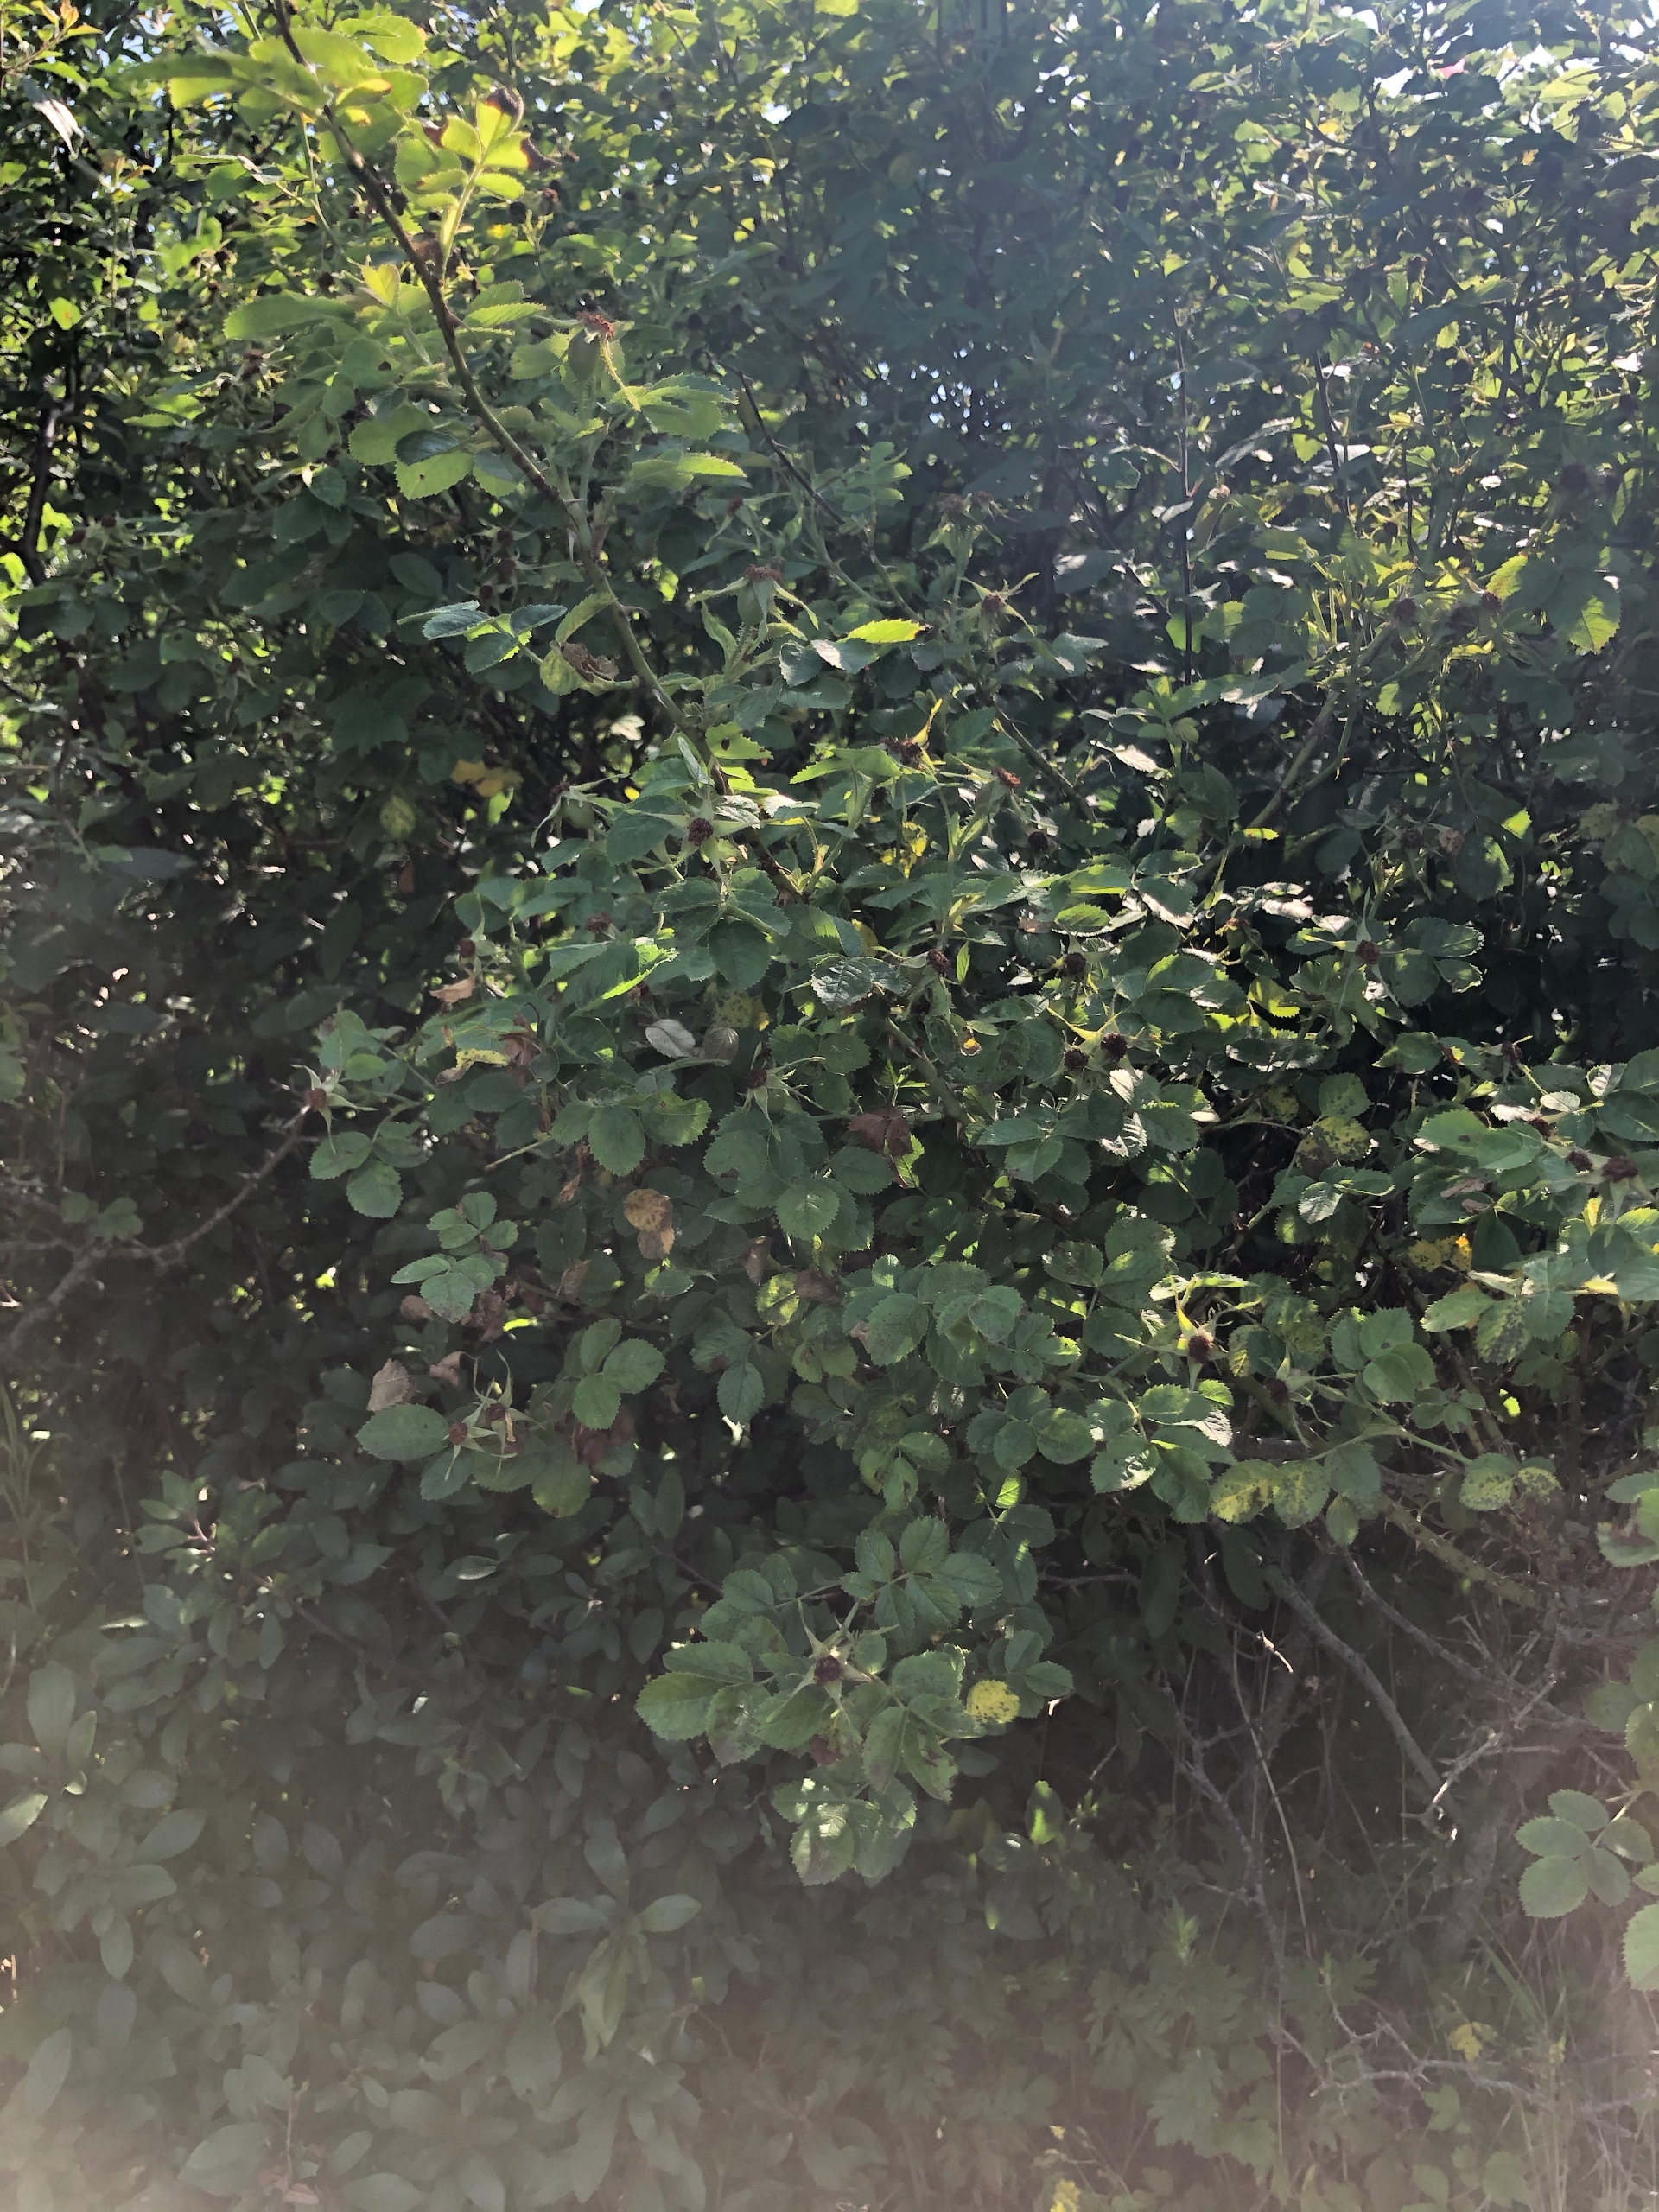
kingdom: Plantae
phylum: Tracheophyta
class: Magnoliopsida
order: Rosales
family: Rosaceae
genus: Rosa
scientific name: Rosa rubiginosa
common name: Æble-rose
